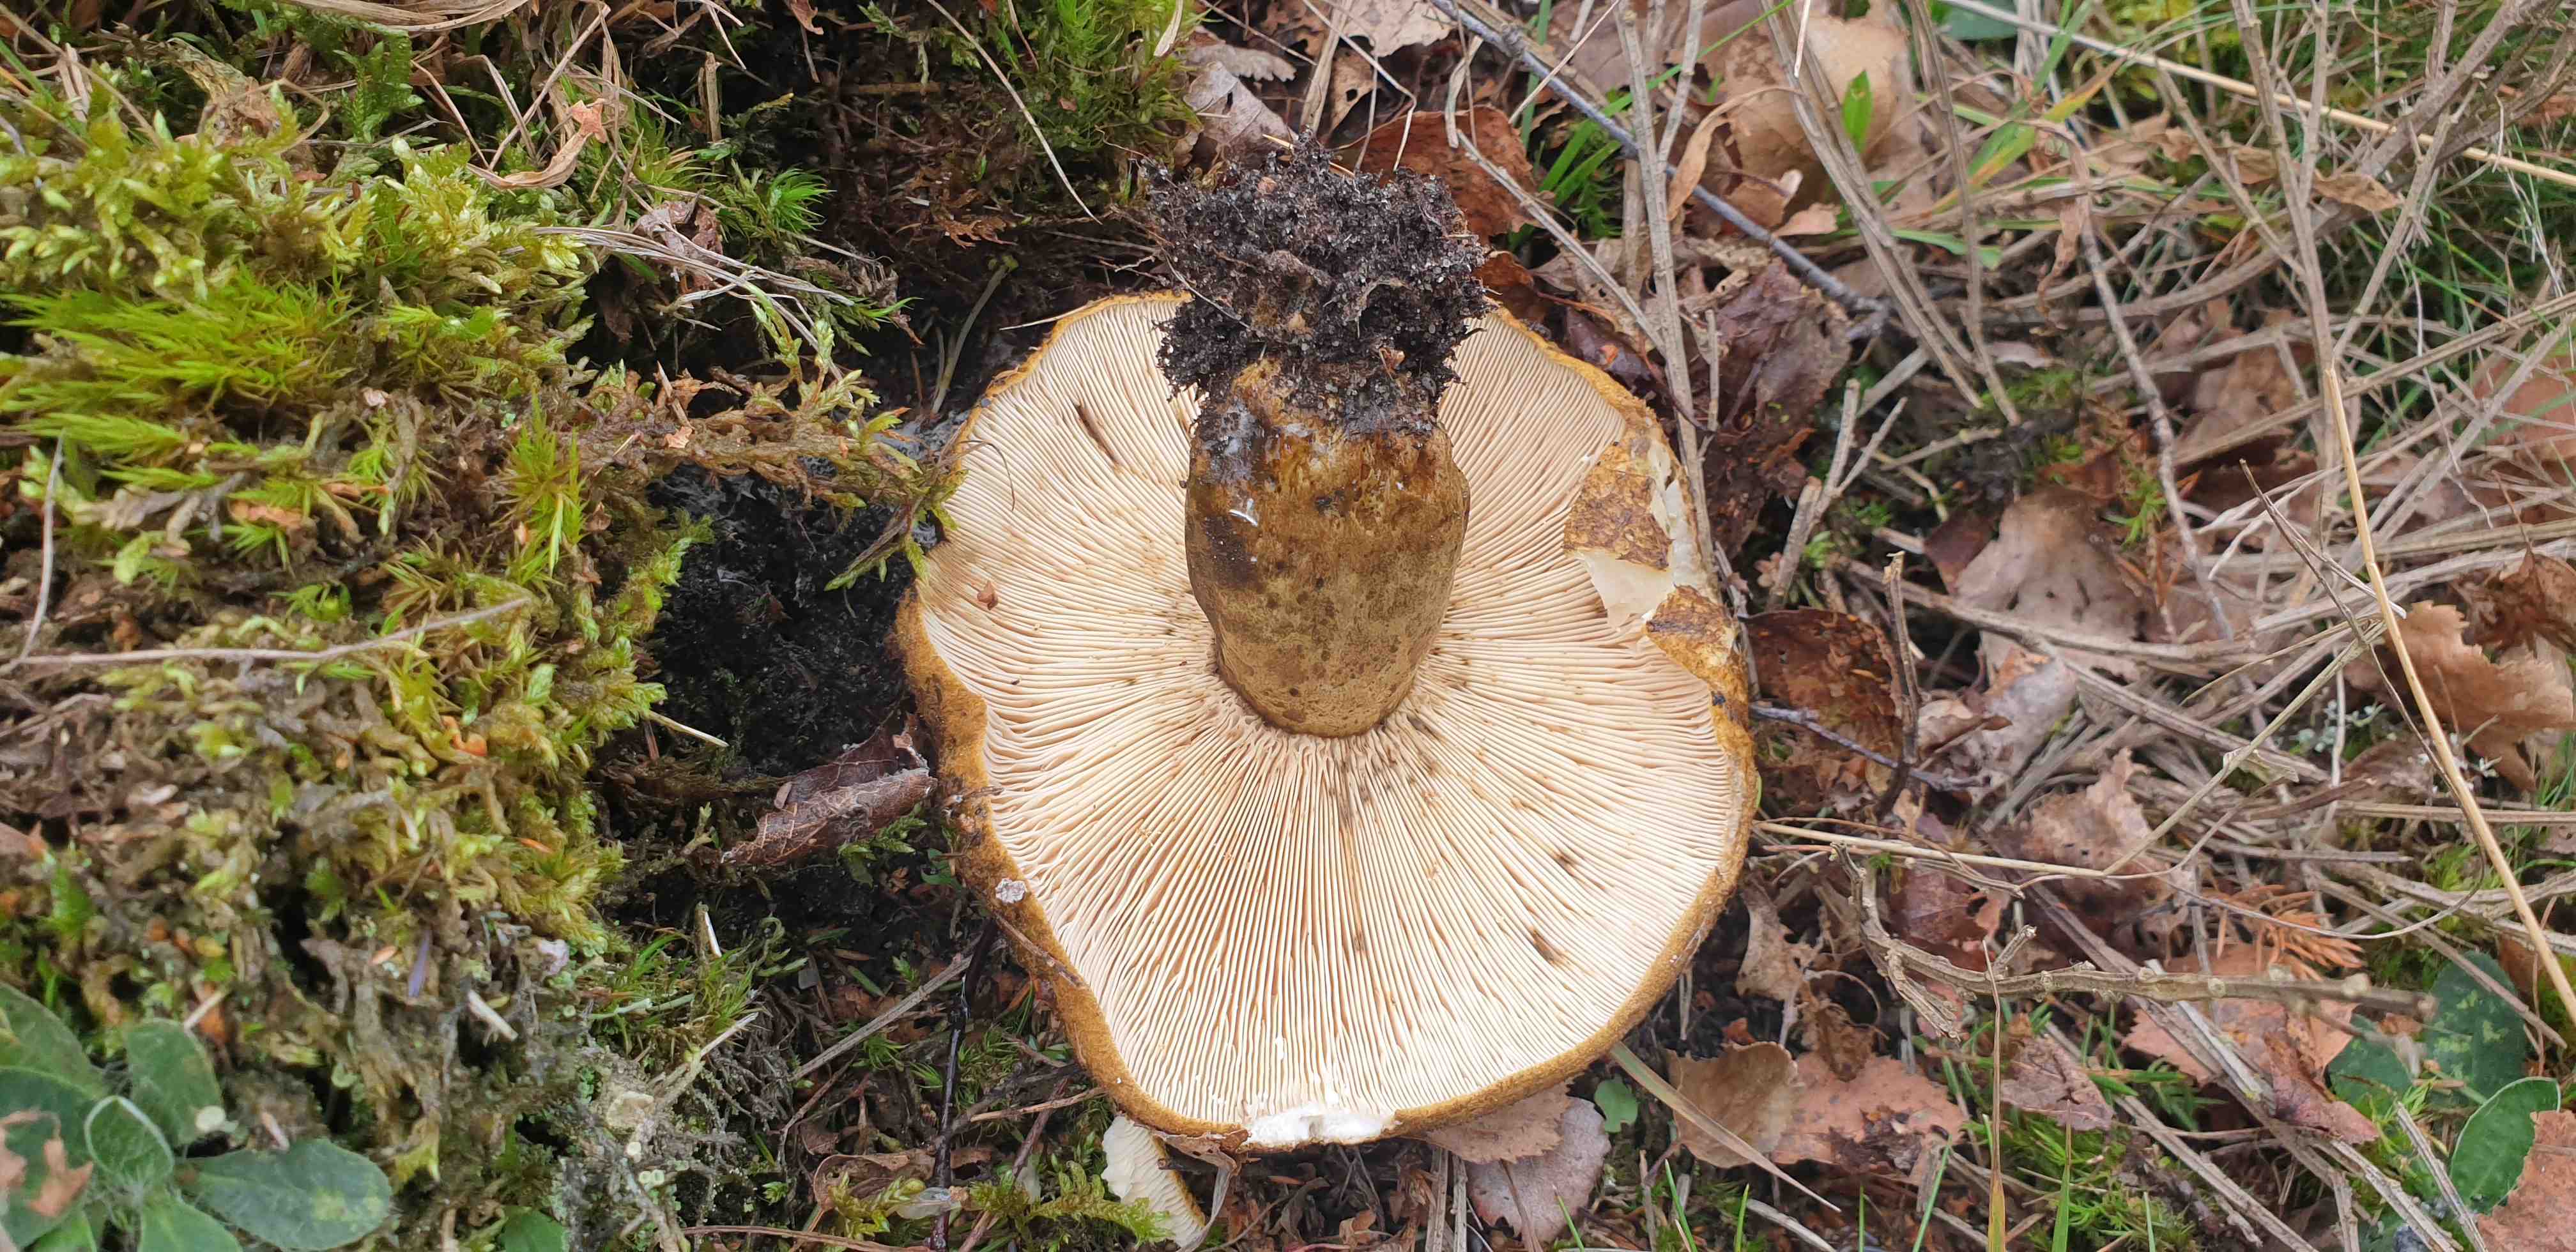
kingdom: Fungi
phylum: Basidiomycota
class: Agaricomycetes
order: Russulales
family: Russulaceae
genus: Lactarius
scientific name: Lactarius necator
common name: manddraber-mælkehat
